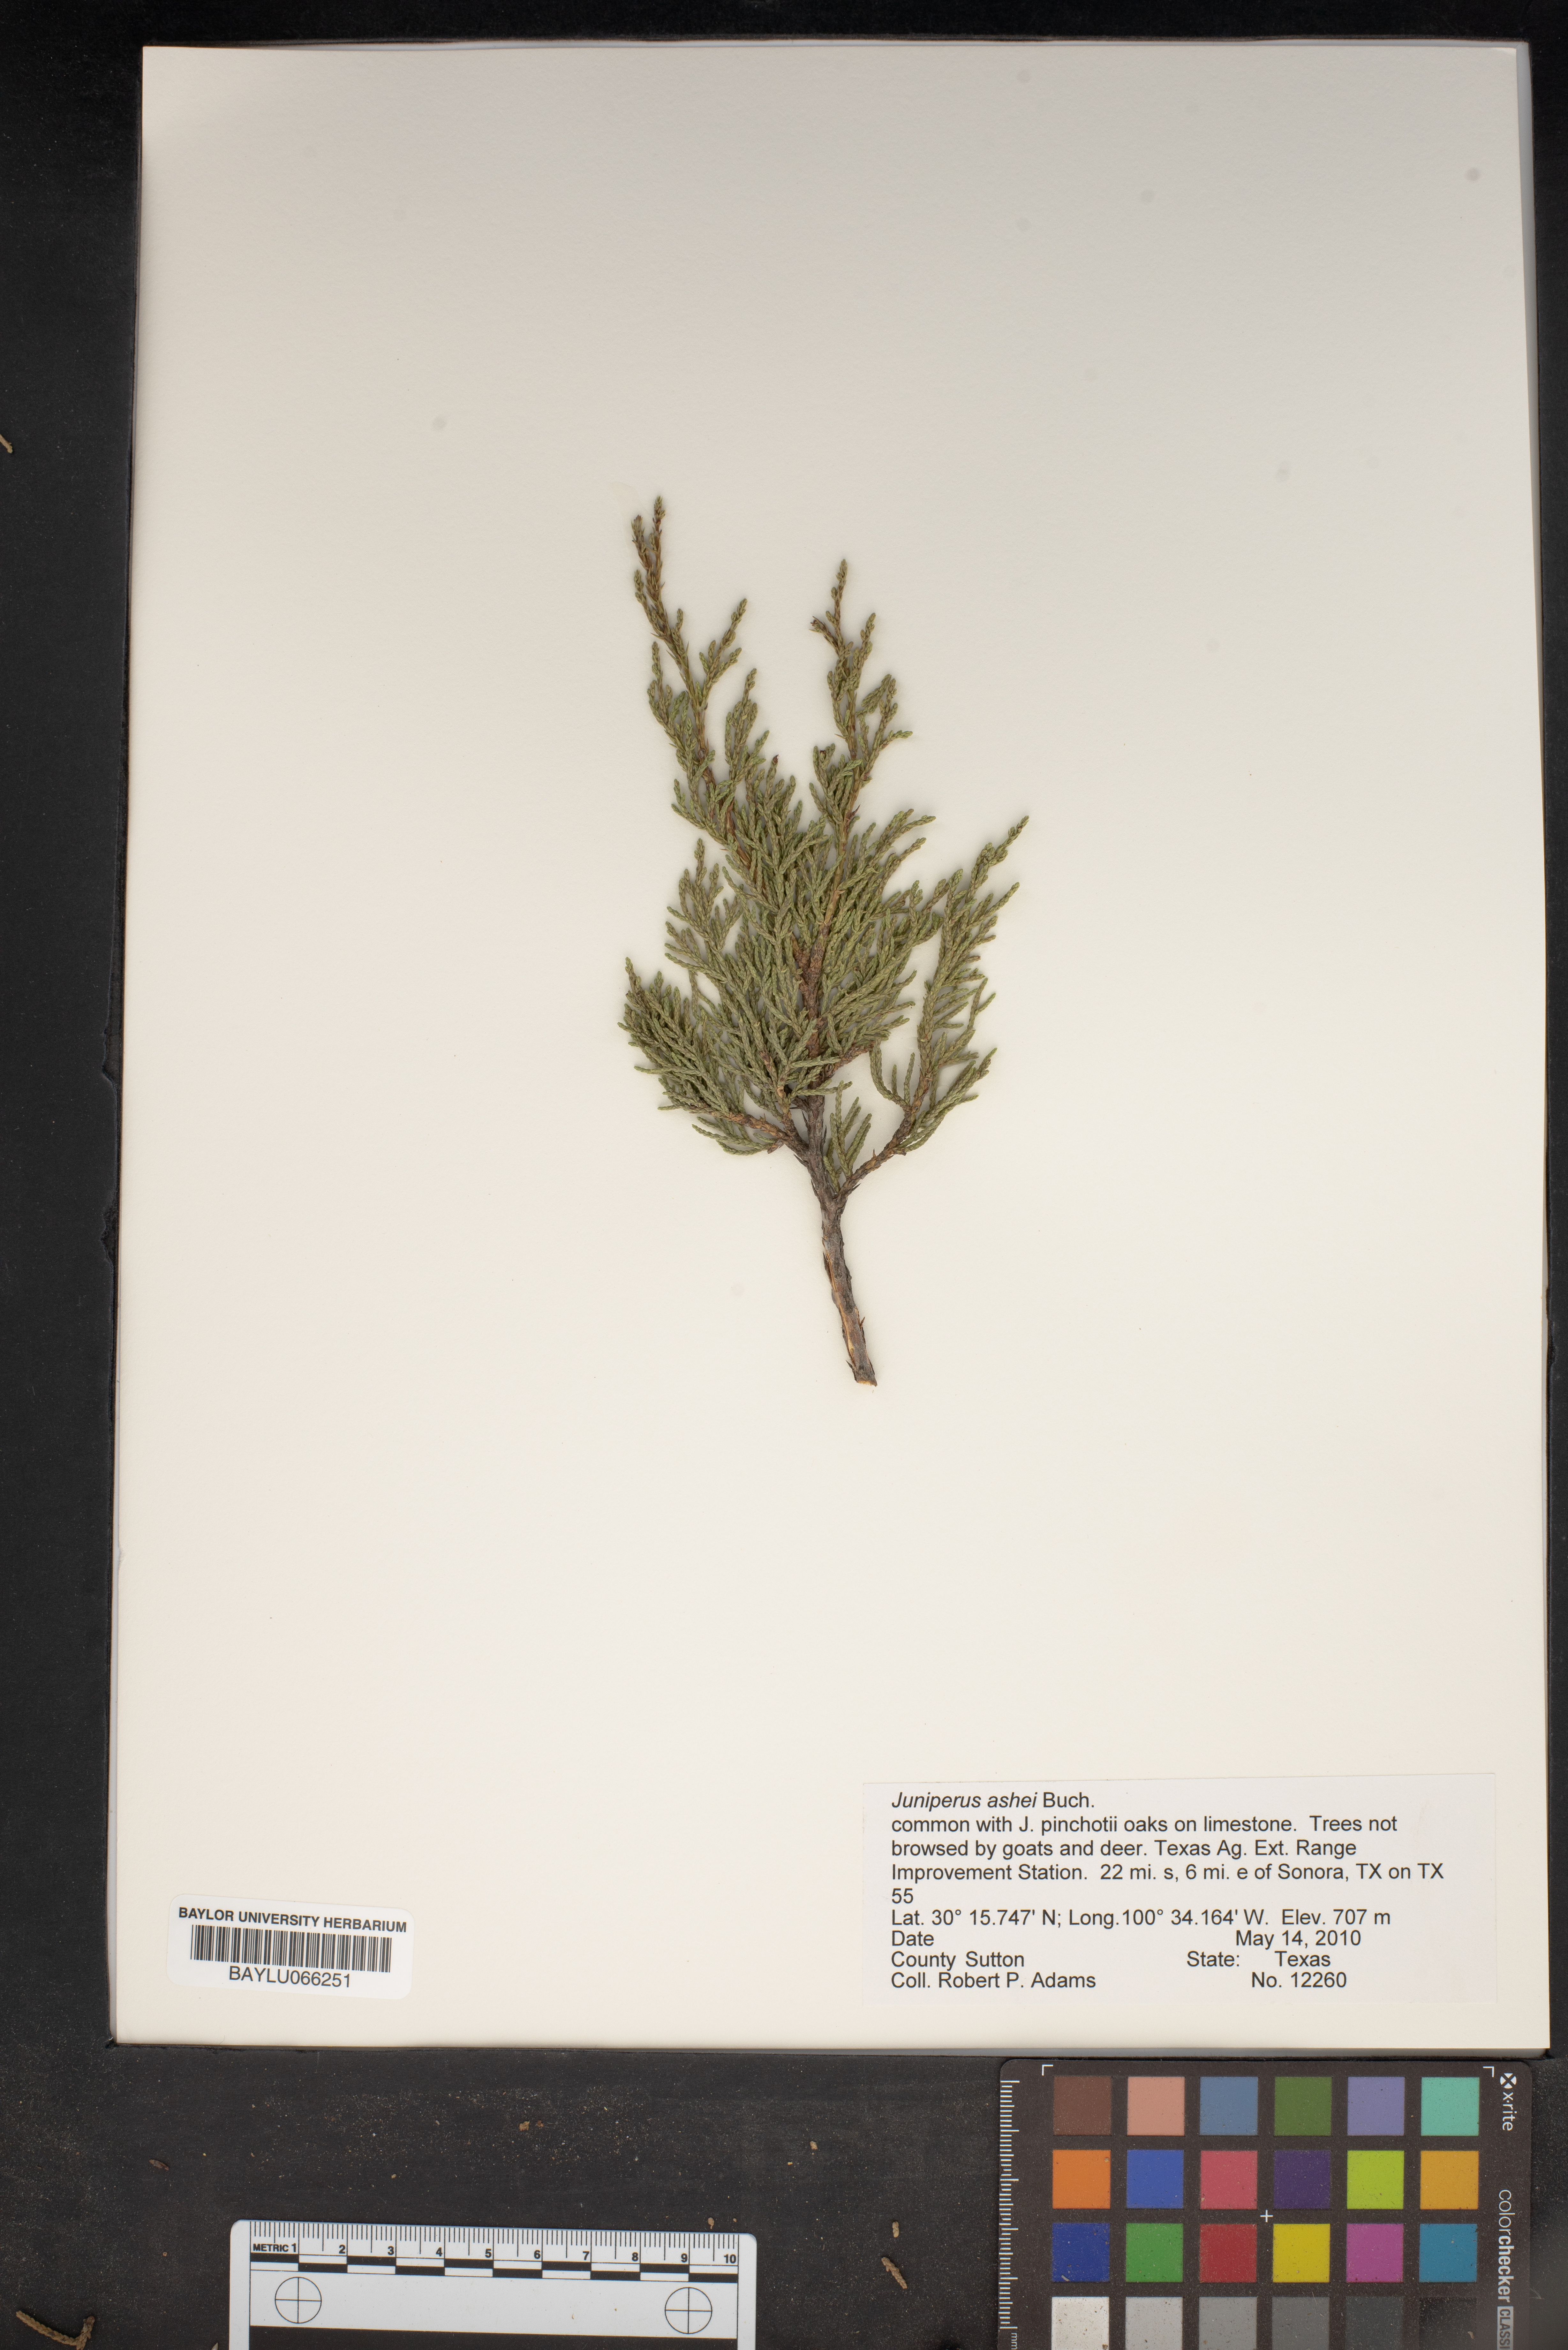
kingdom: Plantae
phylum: Tracheophyta
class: Pinopsida
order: Pinales
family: Cupressaceae
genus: Juniperus
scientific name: Juniperus ashei
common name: Mexican juniper
